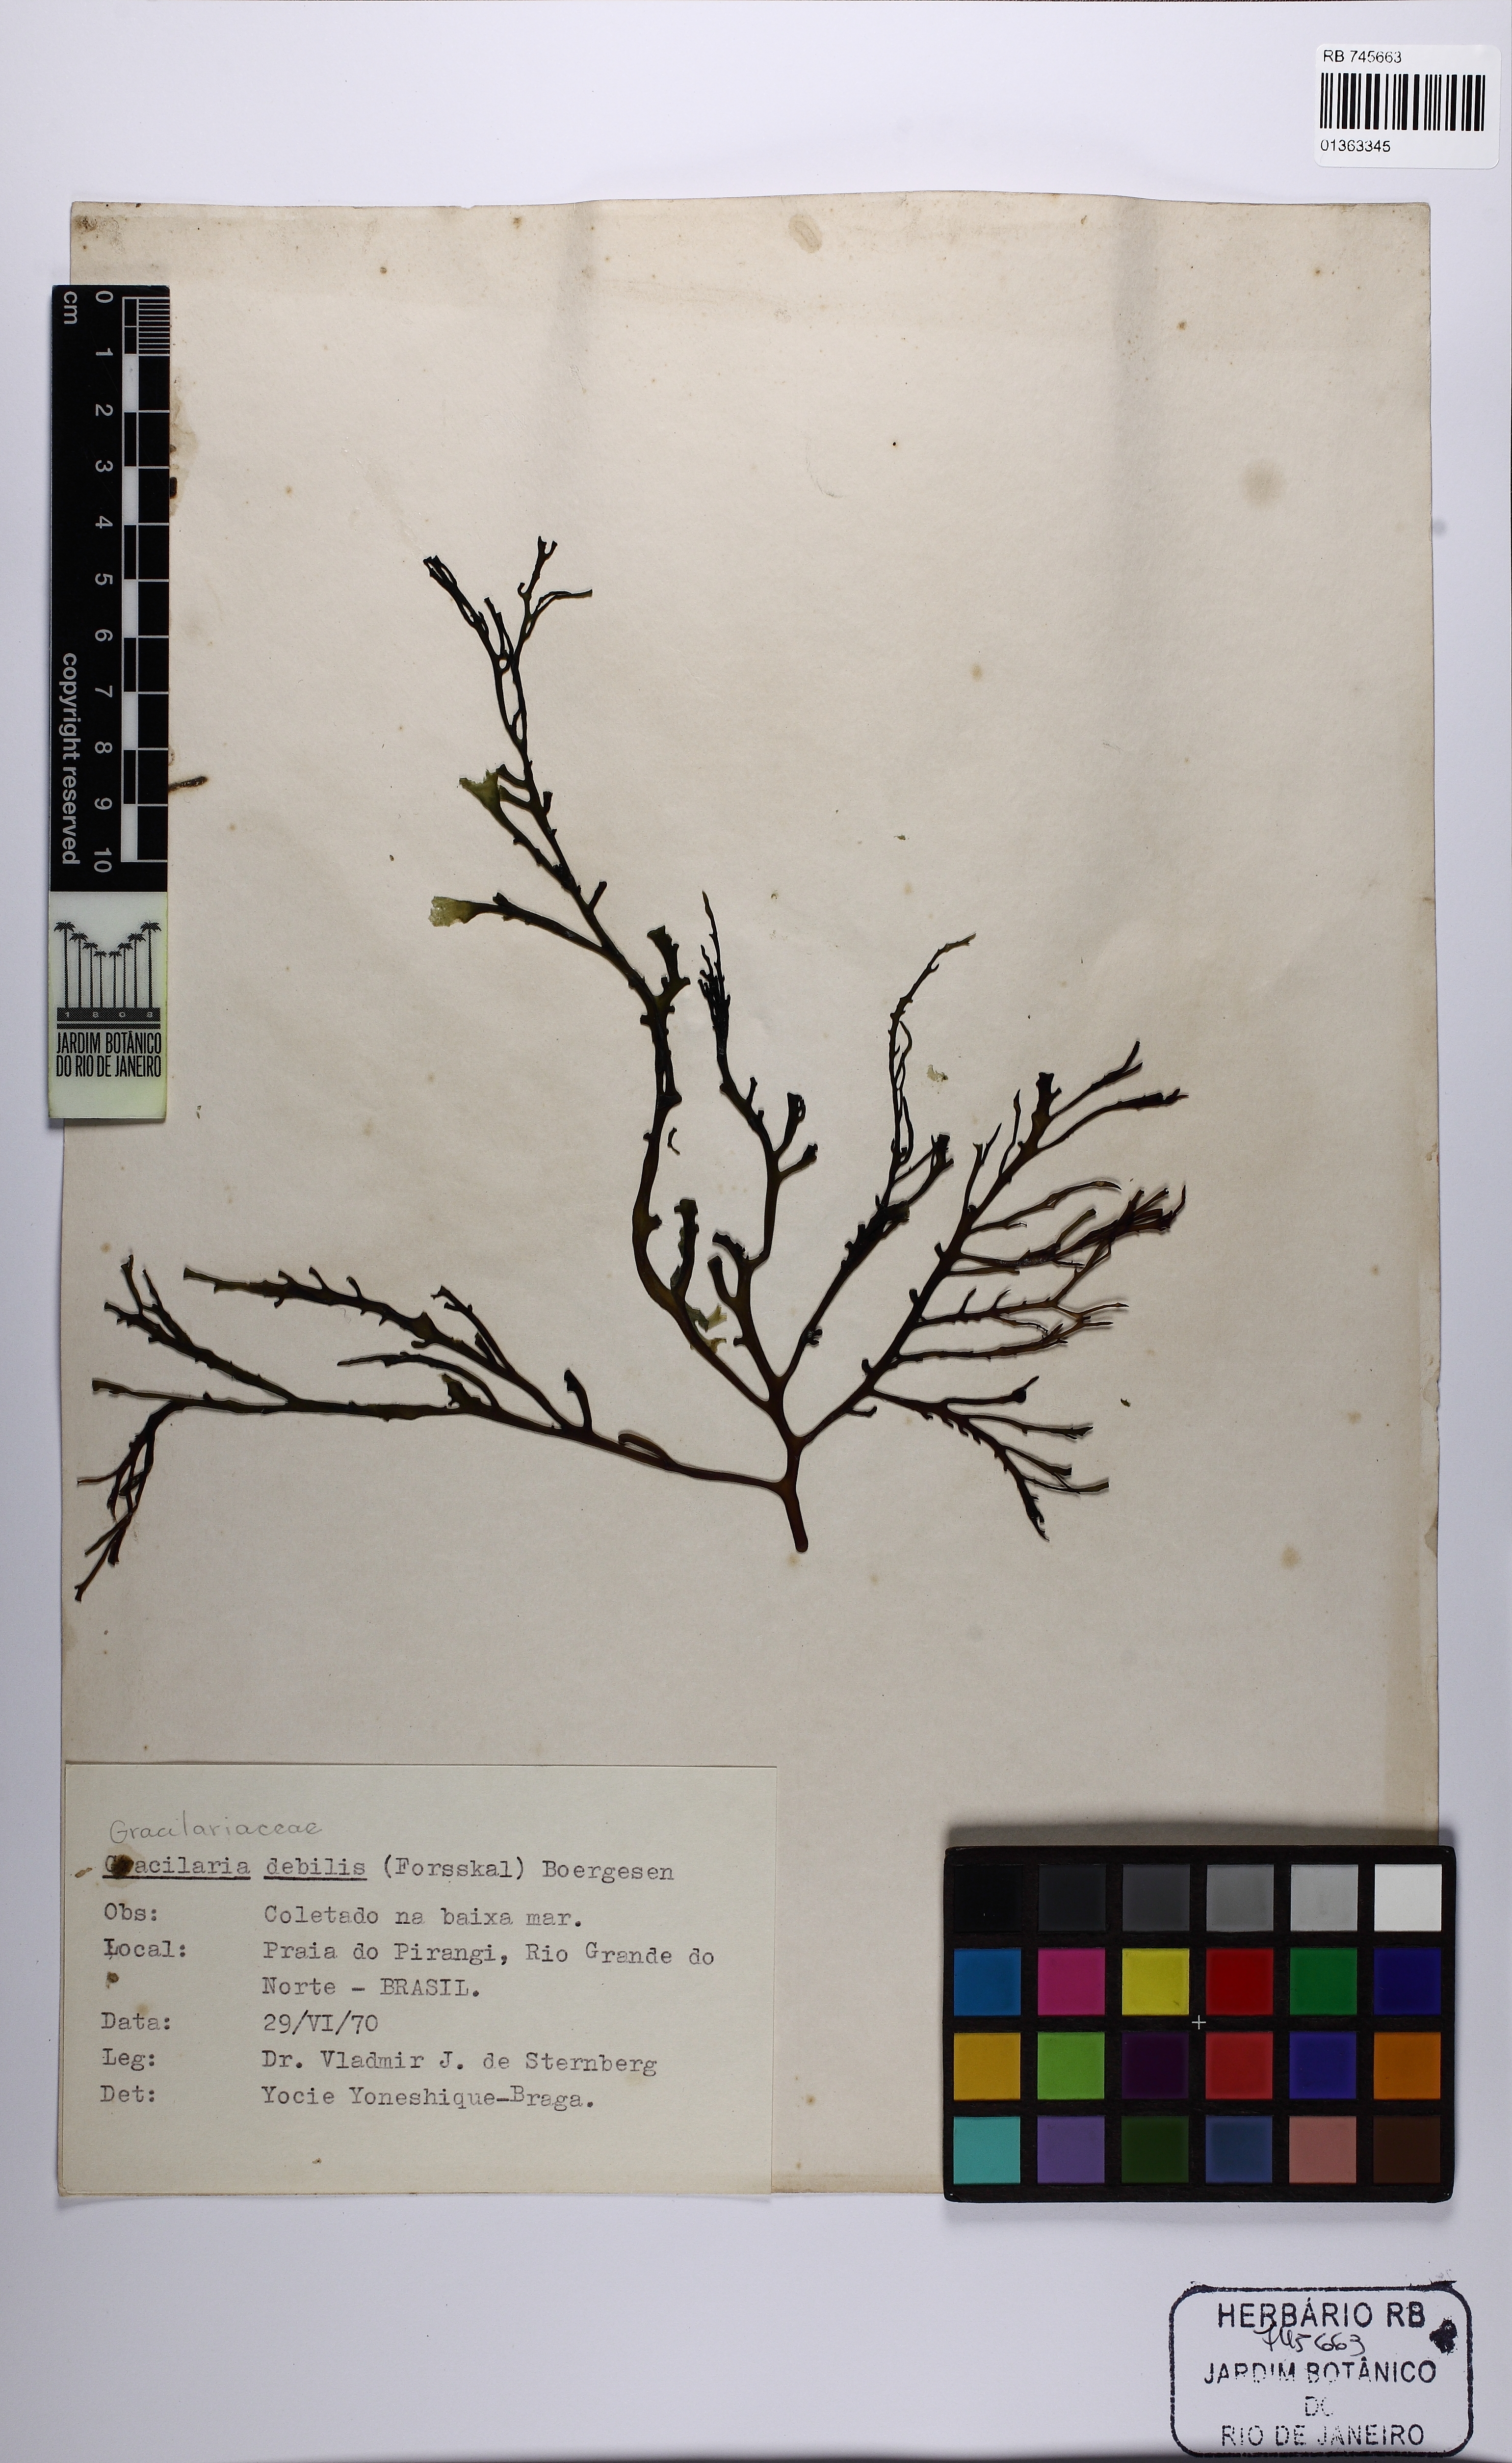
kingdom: Plantae
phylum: Rhodophyta
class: Florideophyceae
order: Gracilariales
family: Gracilariaceae
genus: Gracilaria
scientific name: Gracilaria debilis
